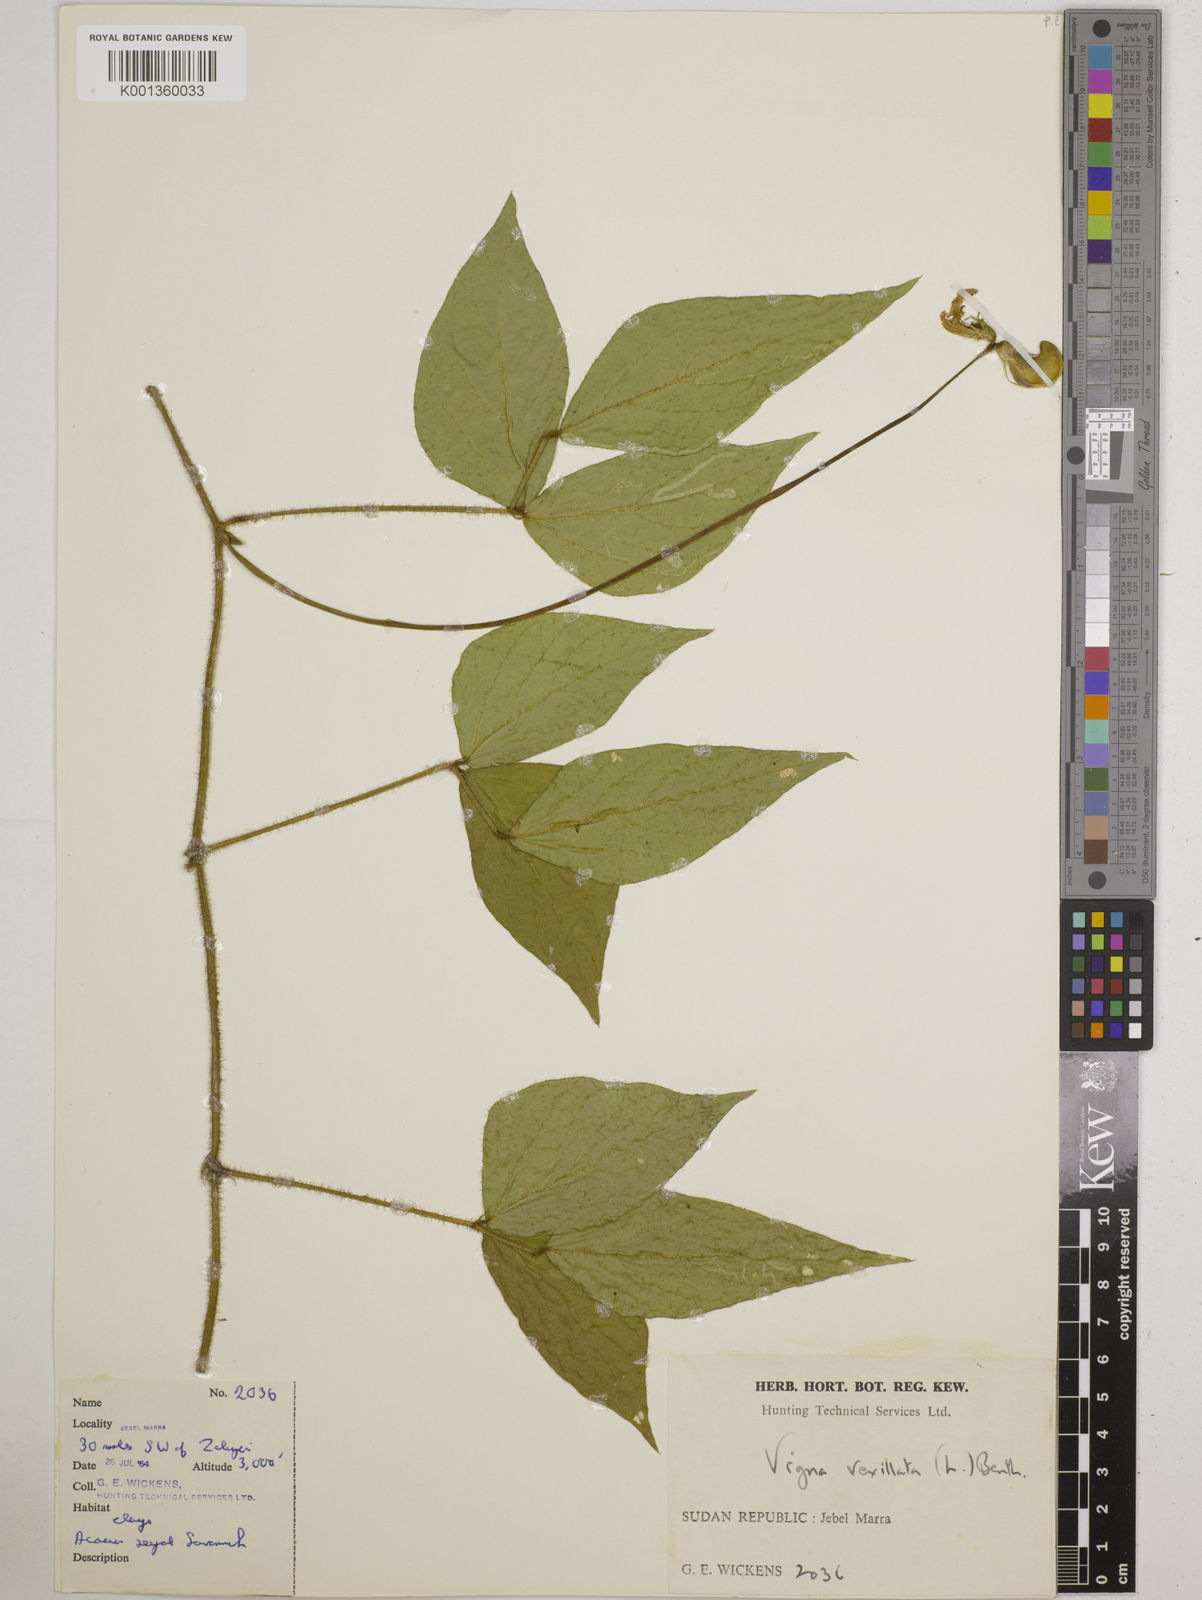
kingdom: Plantae
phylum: Tracheophyta
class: Magnoliopsida
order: Fabales
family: Fabaceae
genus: Vigna
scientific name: Vigna vexillata
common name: Zombi pea
